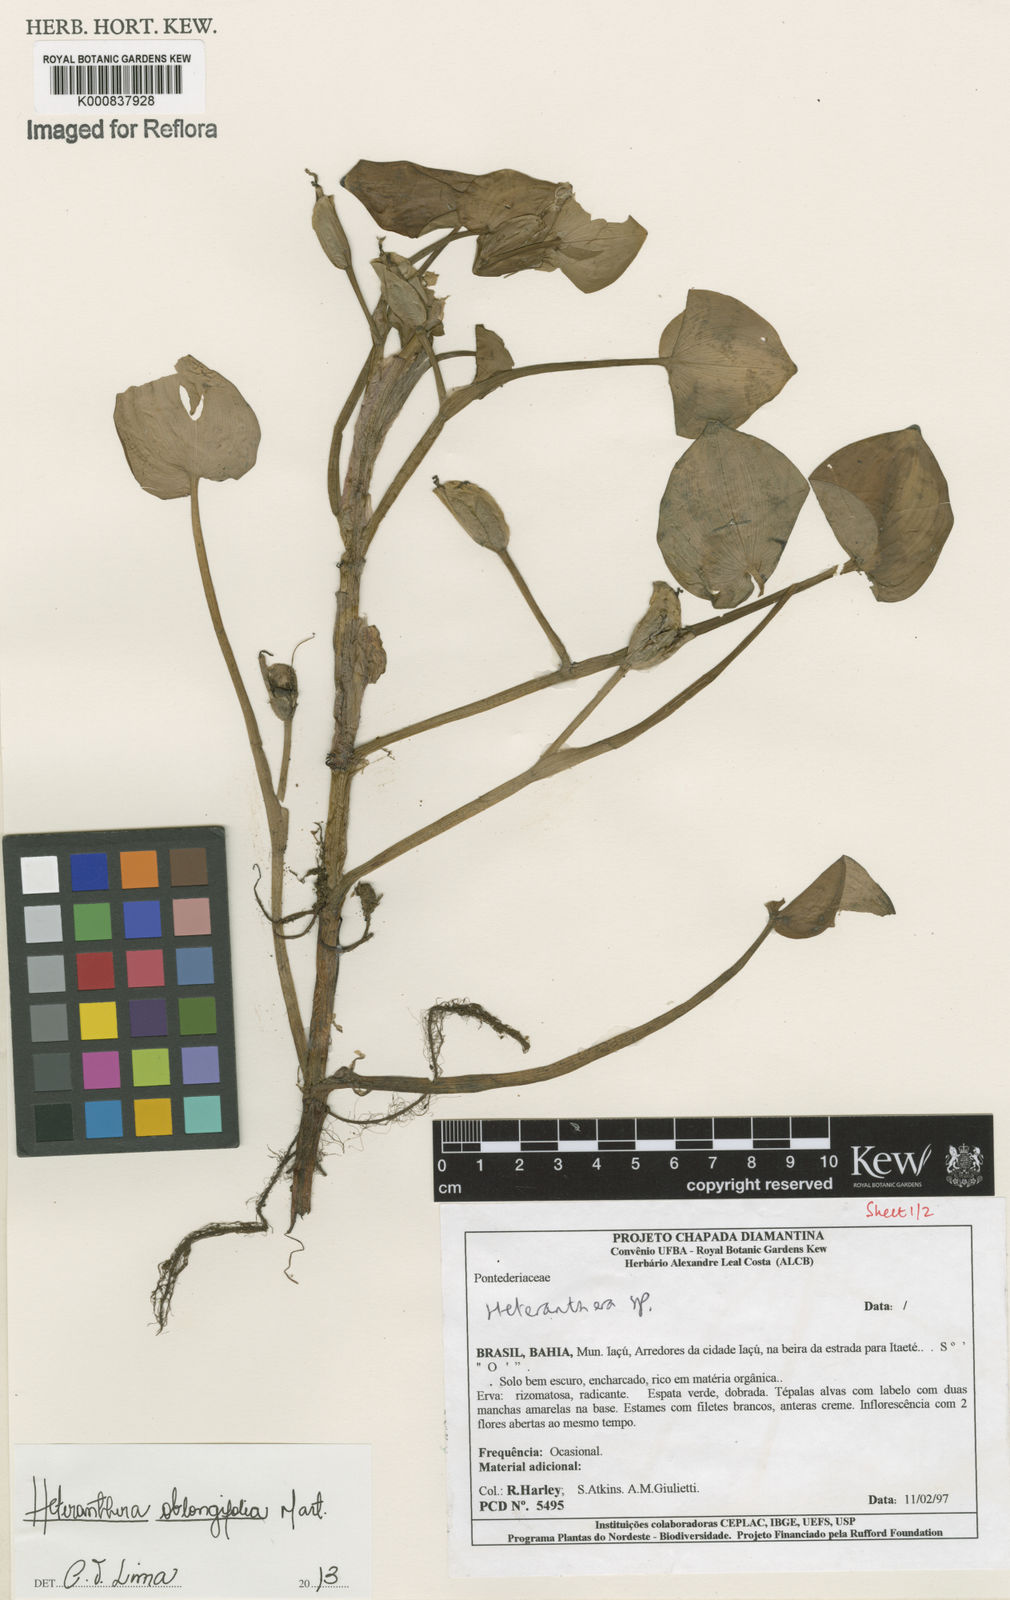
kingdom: Plantae
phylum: Tracheophyta
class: Liliopsida
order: Commelinales
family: Pontederiaceae
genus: Heteranthera
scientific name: Heteranthera oblongifolia
